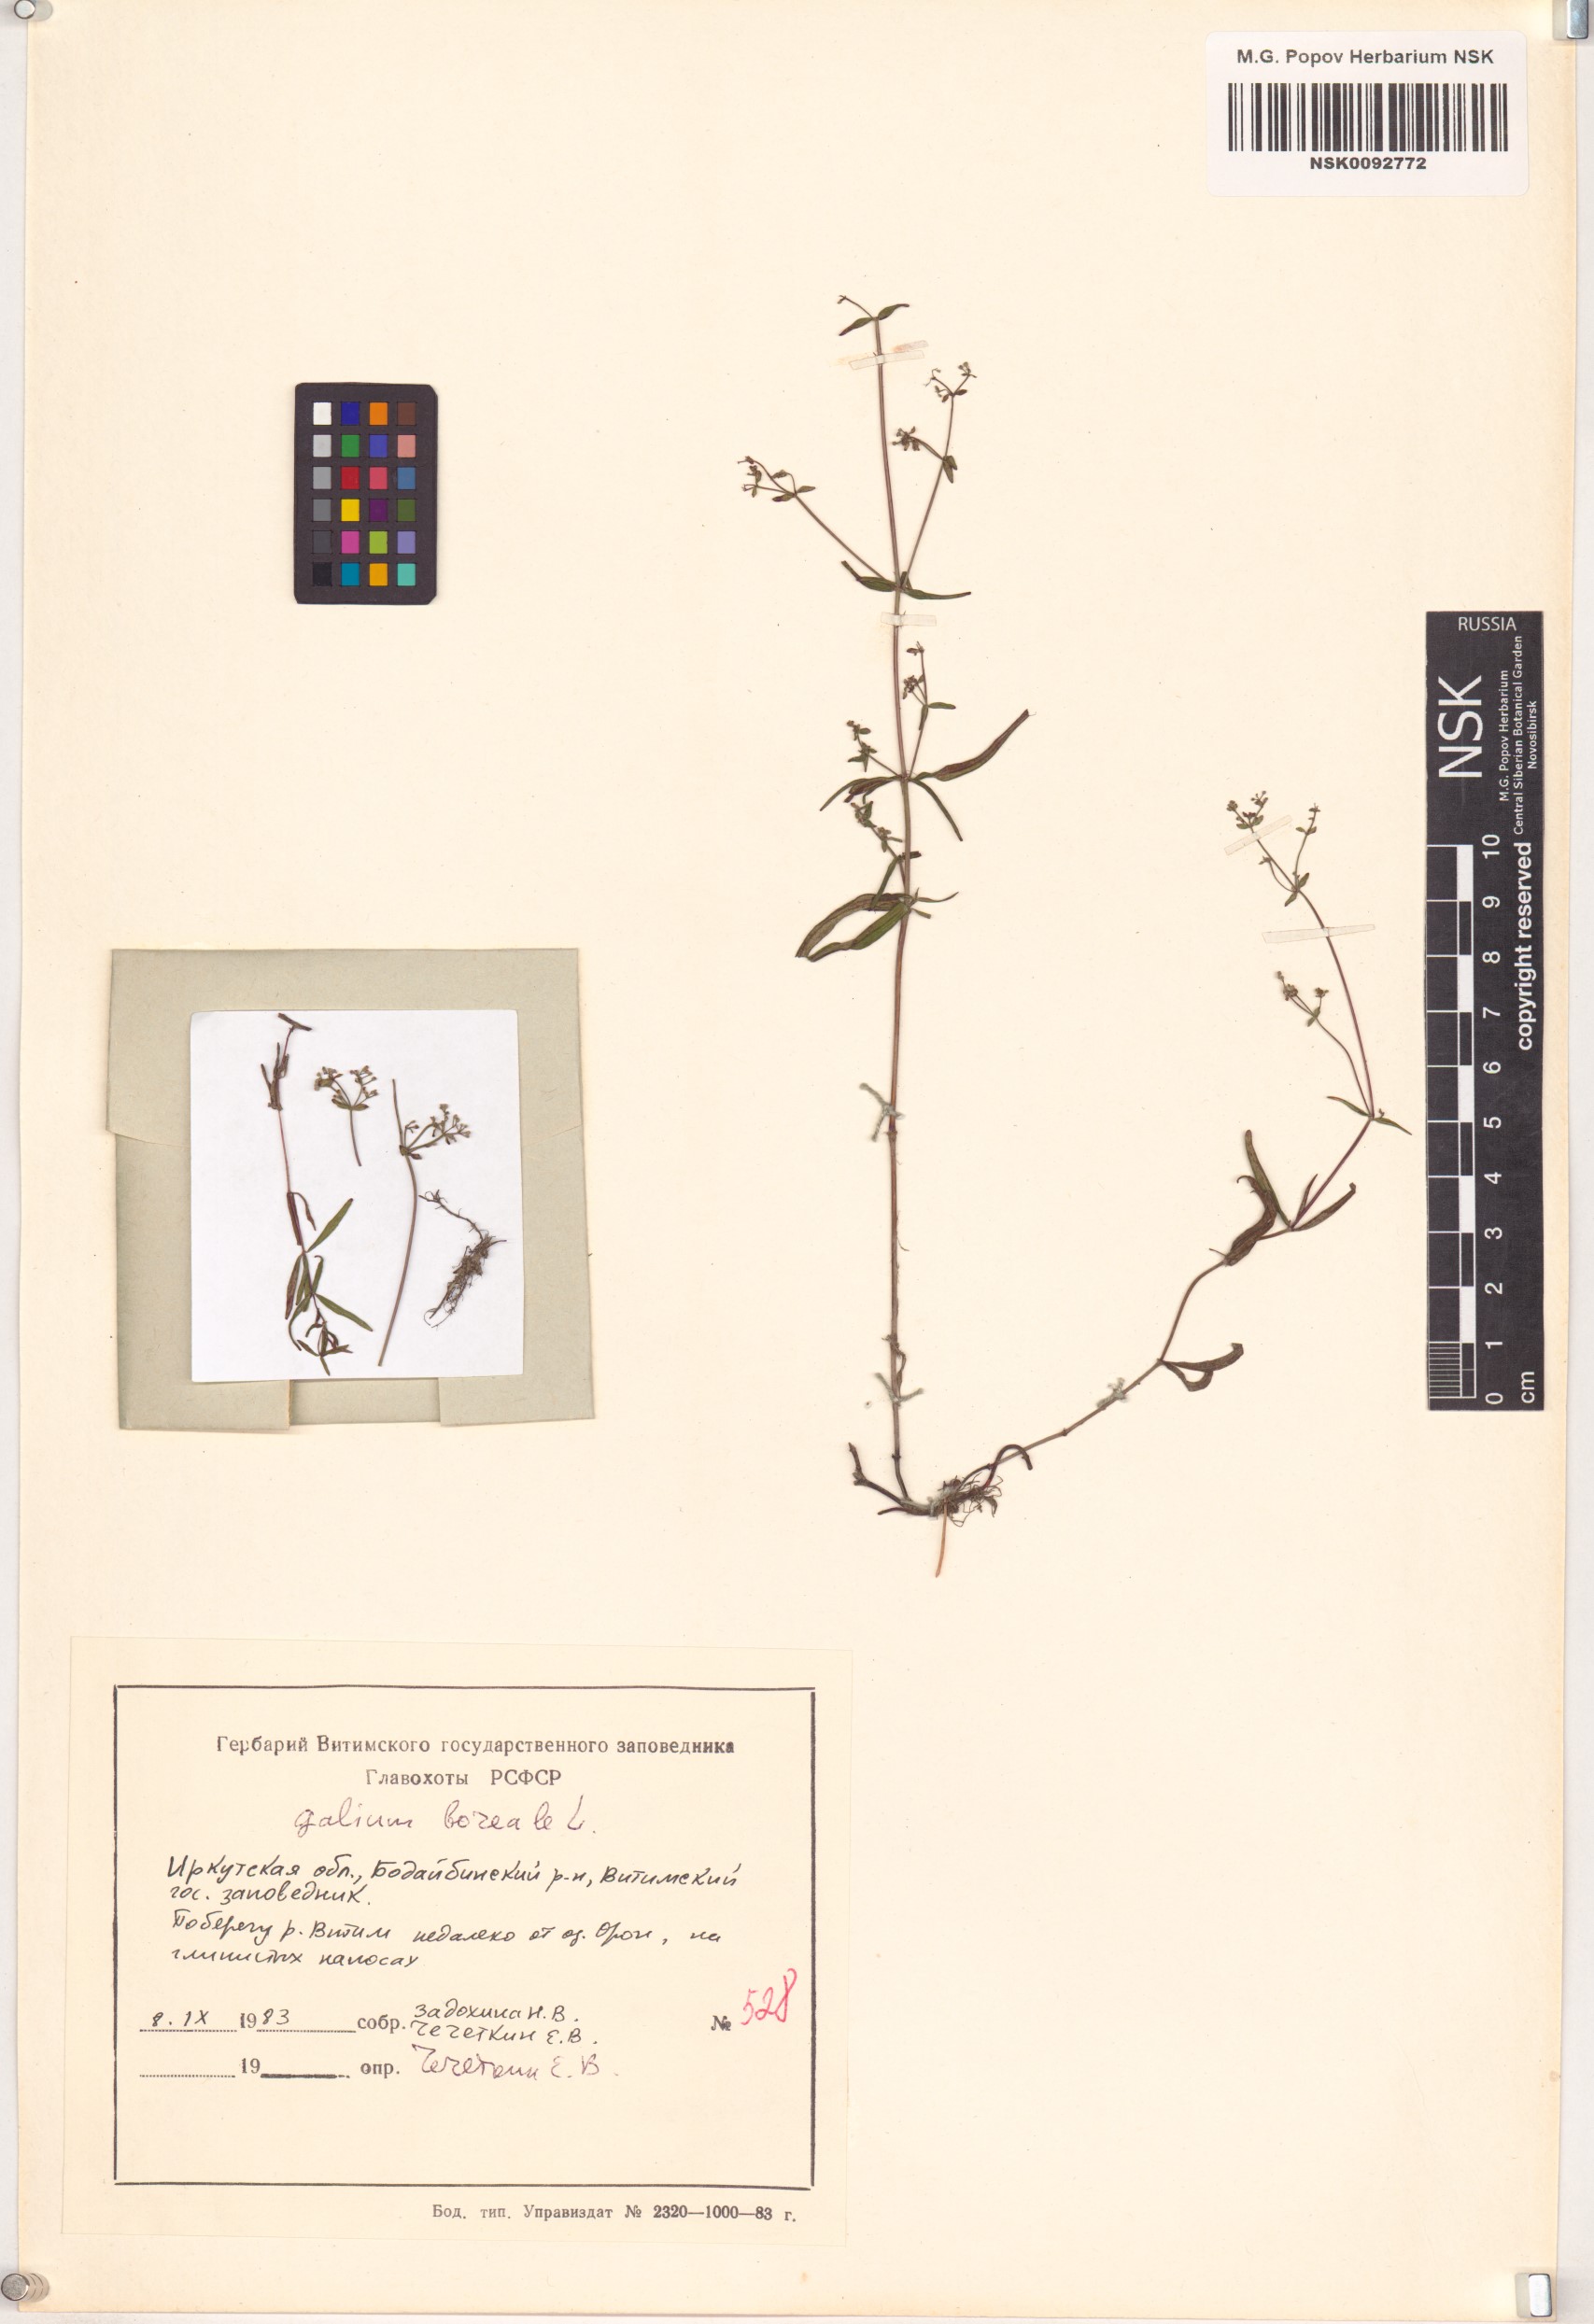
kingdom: Plantae
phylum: Tracheophyta
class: Magnoliopsida
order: Gentianales
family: Rubiaceae
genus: Galium
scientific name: Galium boreale
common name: Northern bedstraw
